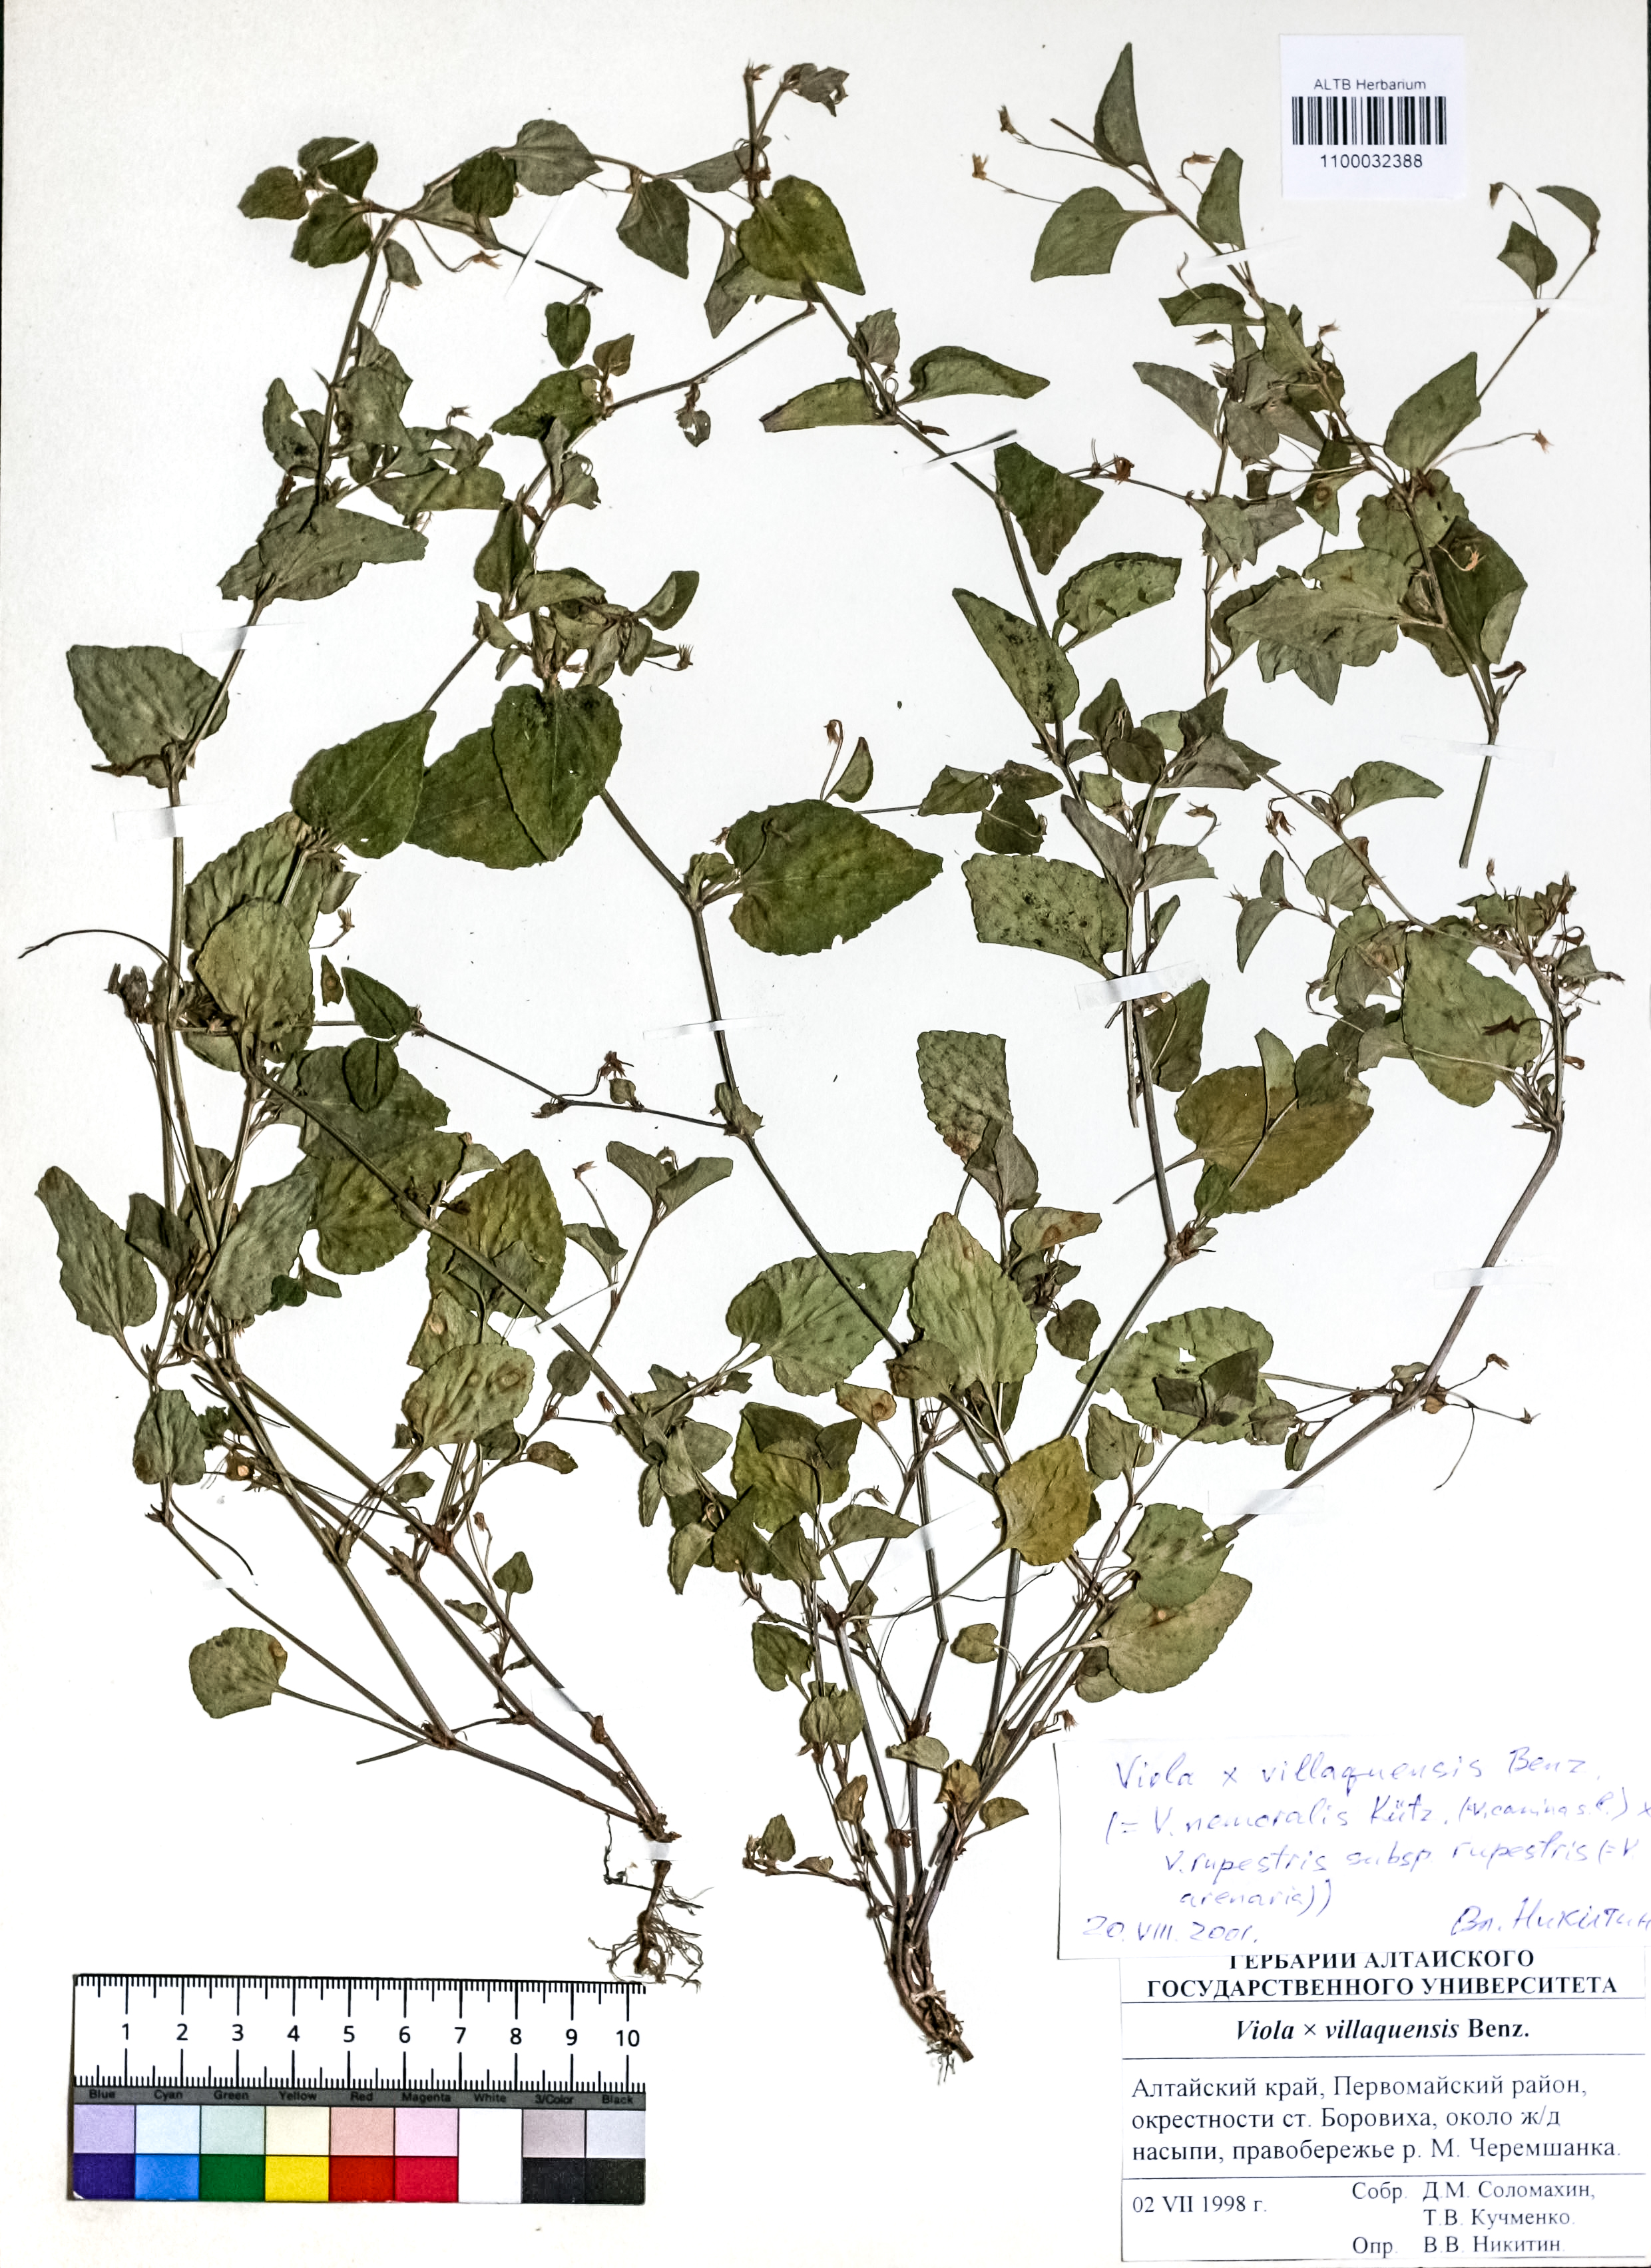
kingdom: Plantae
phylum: Tracheophyta
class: Magnoliopsida
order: Malpighiales
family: Violaceae
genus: Viola
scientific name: Viola villaquensis
